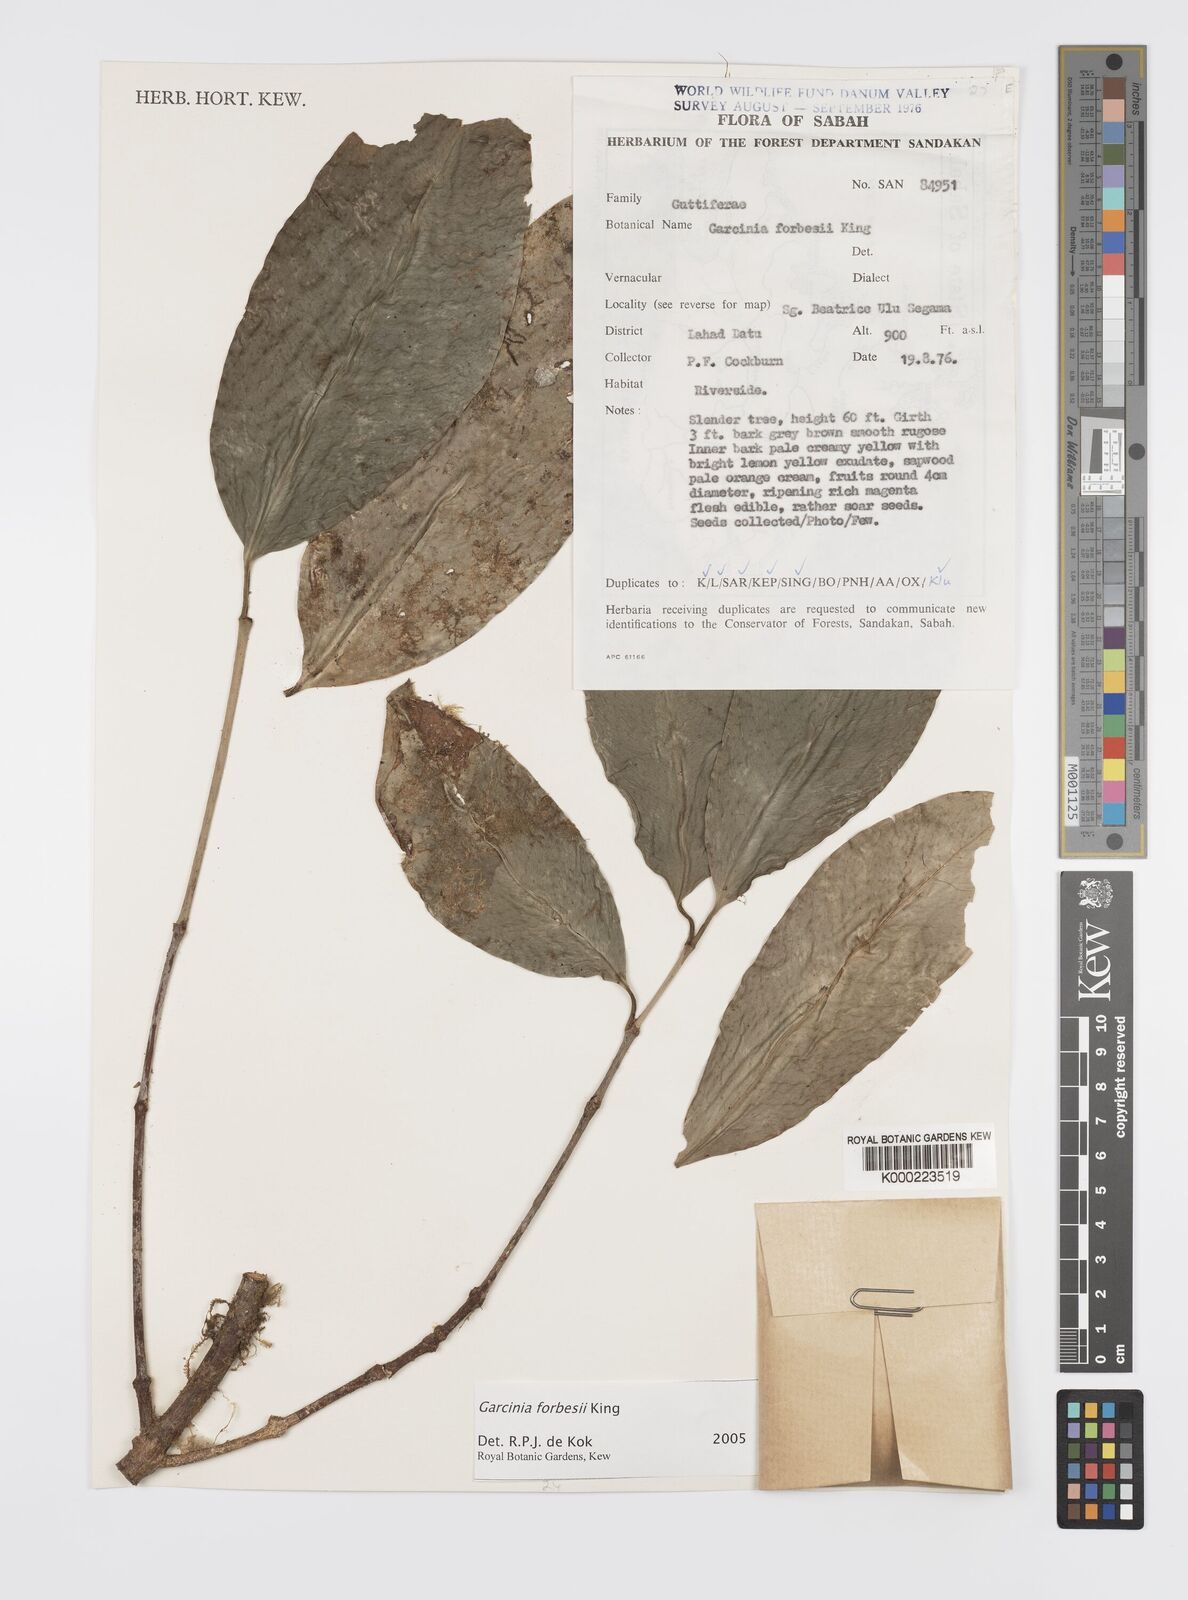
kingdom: Plantae
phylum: Tracheophyta
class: Magnoliopsida
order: Malpighiales
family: Clusiaceae
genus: Garcinia
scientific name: Garcinia forbesii
